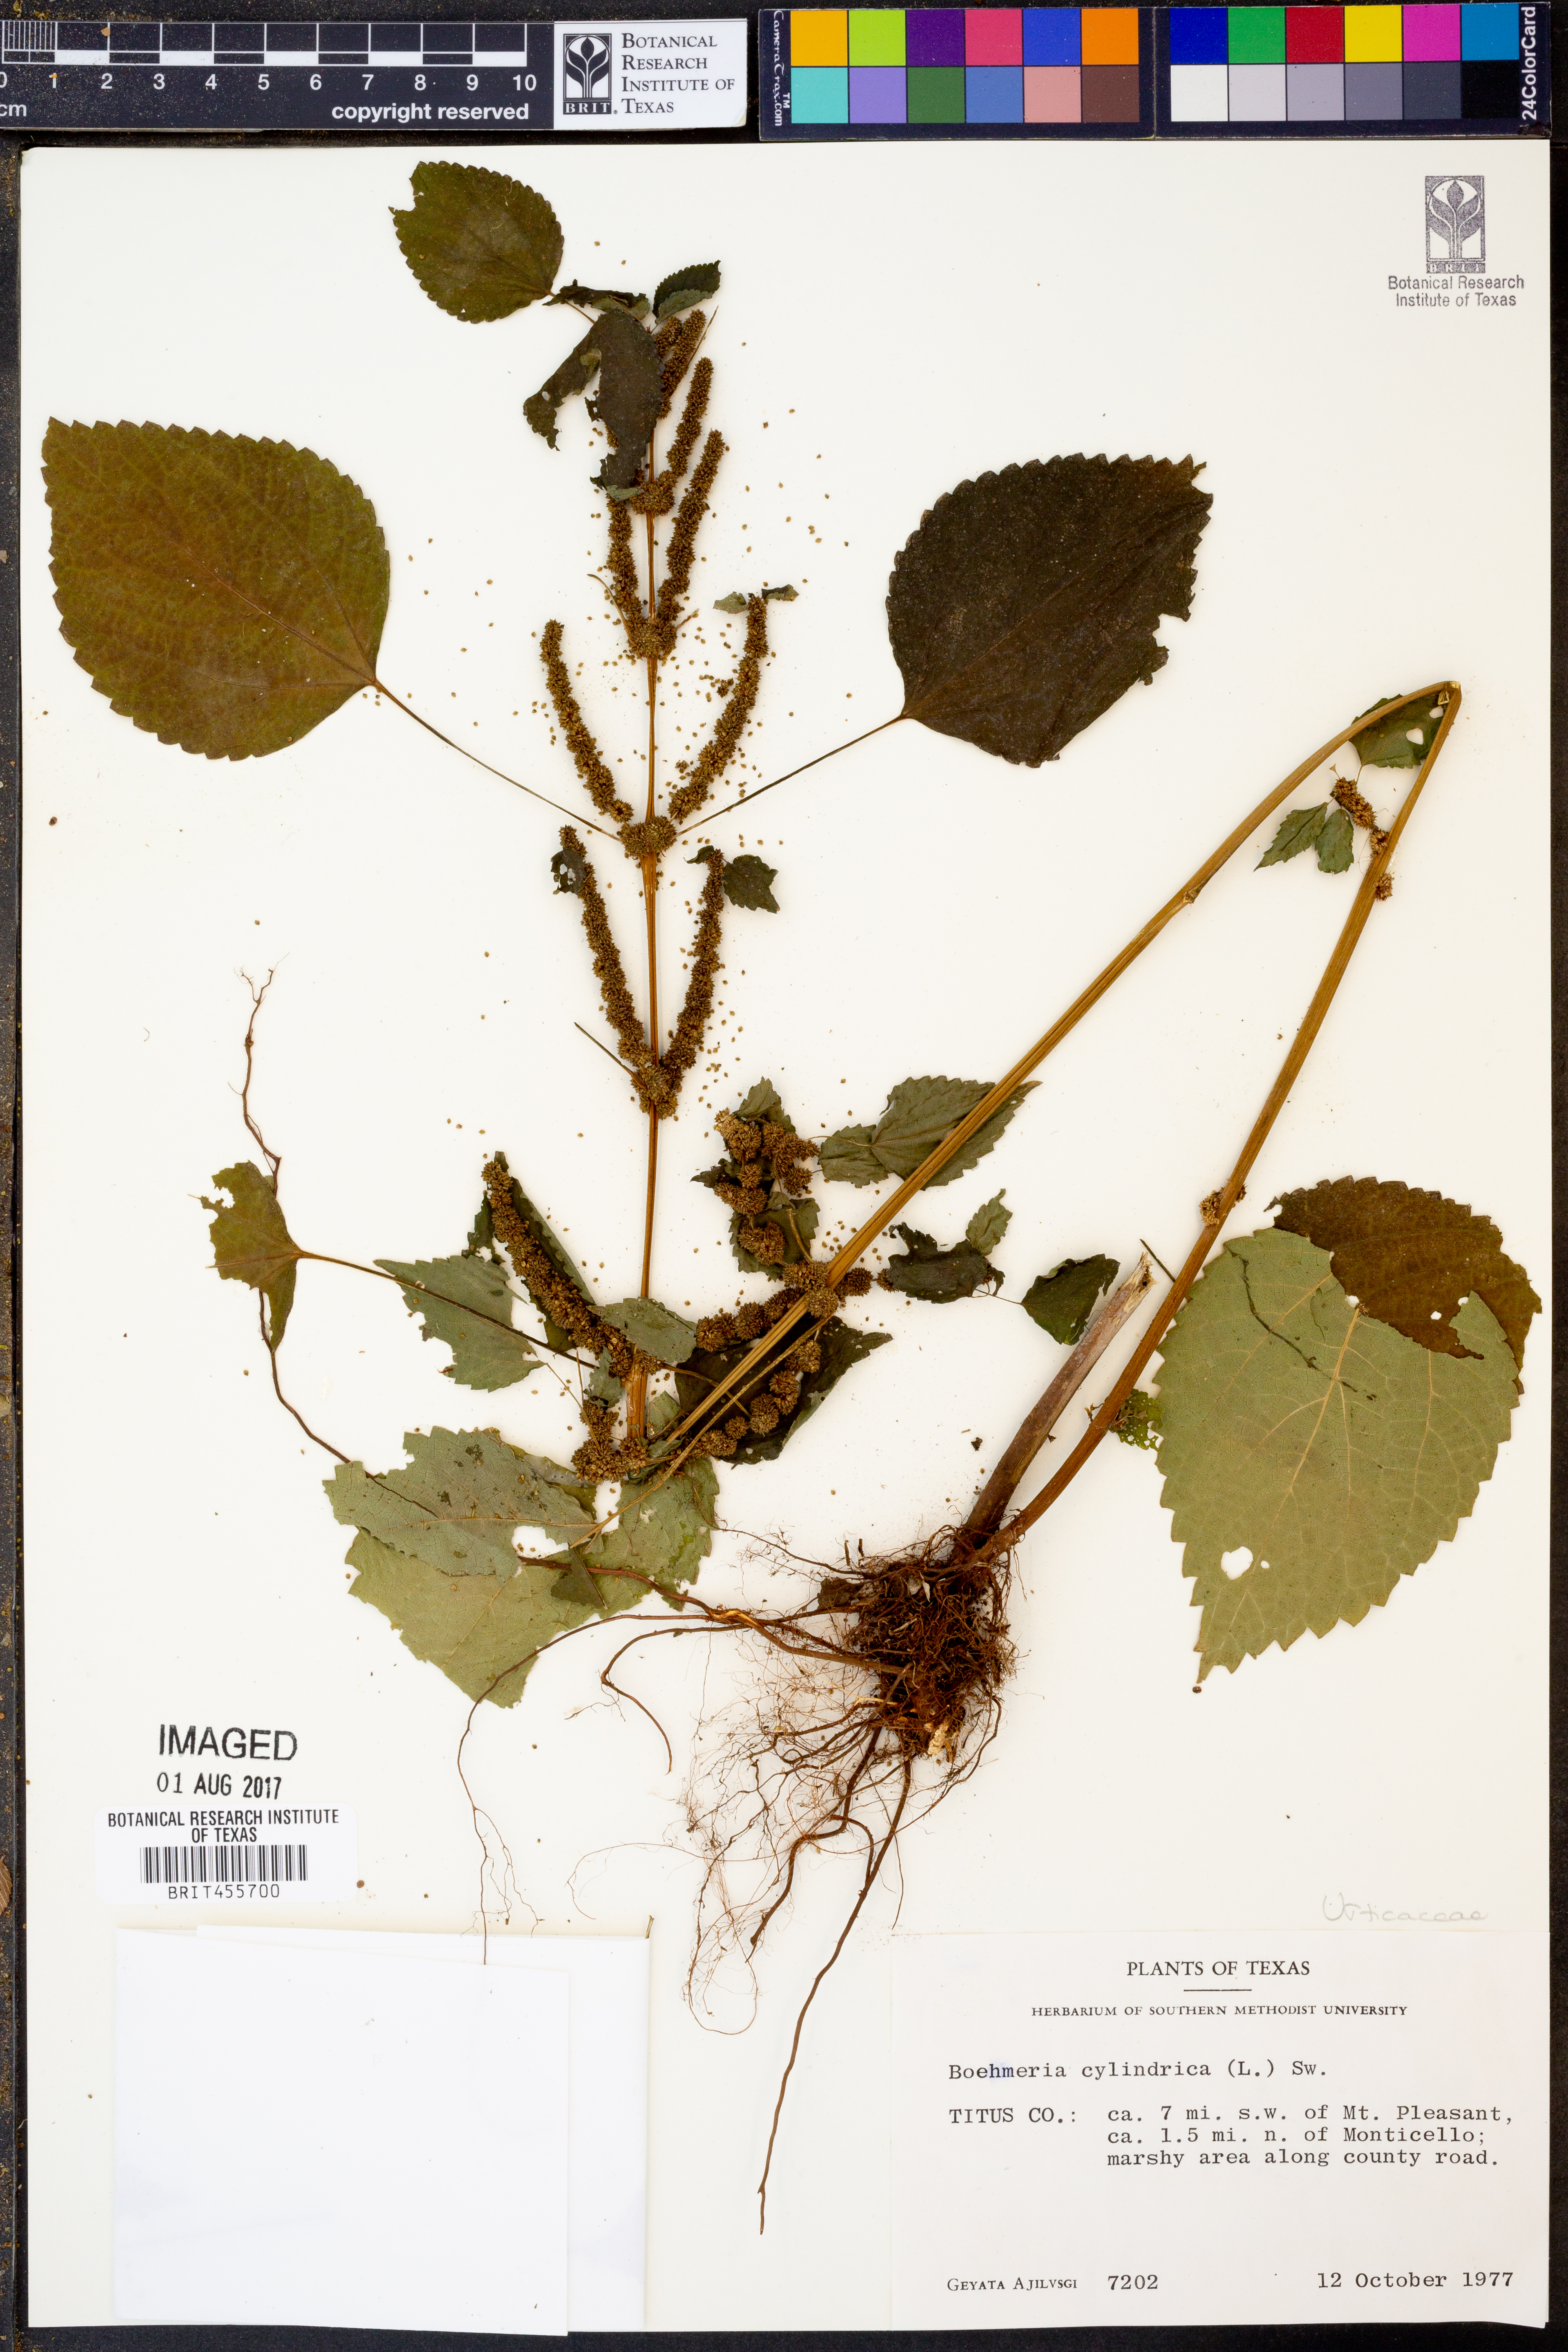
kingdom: Plantae
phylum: Tracheophyta
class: Magnoliopsida
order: Rosales
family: Urticaceae
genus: Boehmeria
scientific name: Boehmeria cylindrica
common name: Bog-hemp
